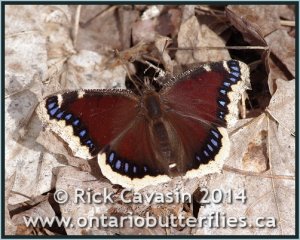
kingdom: Animalia
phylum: Arthropoda
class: Insecta
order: Lepidoptera
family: Nymphalidae
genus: Nymphalis
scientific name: Nymphalis antiopa
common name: Mourning Cloak
